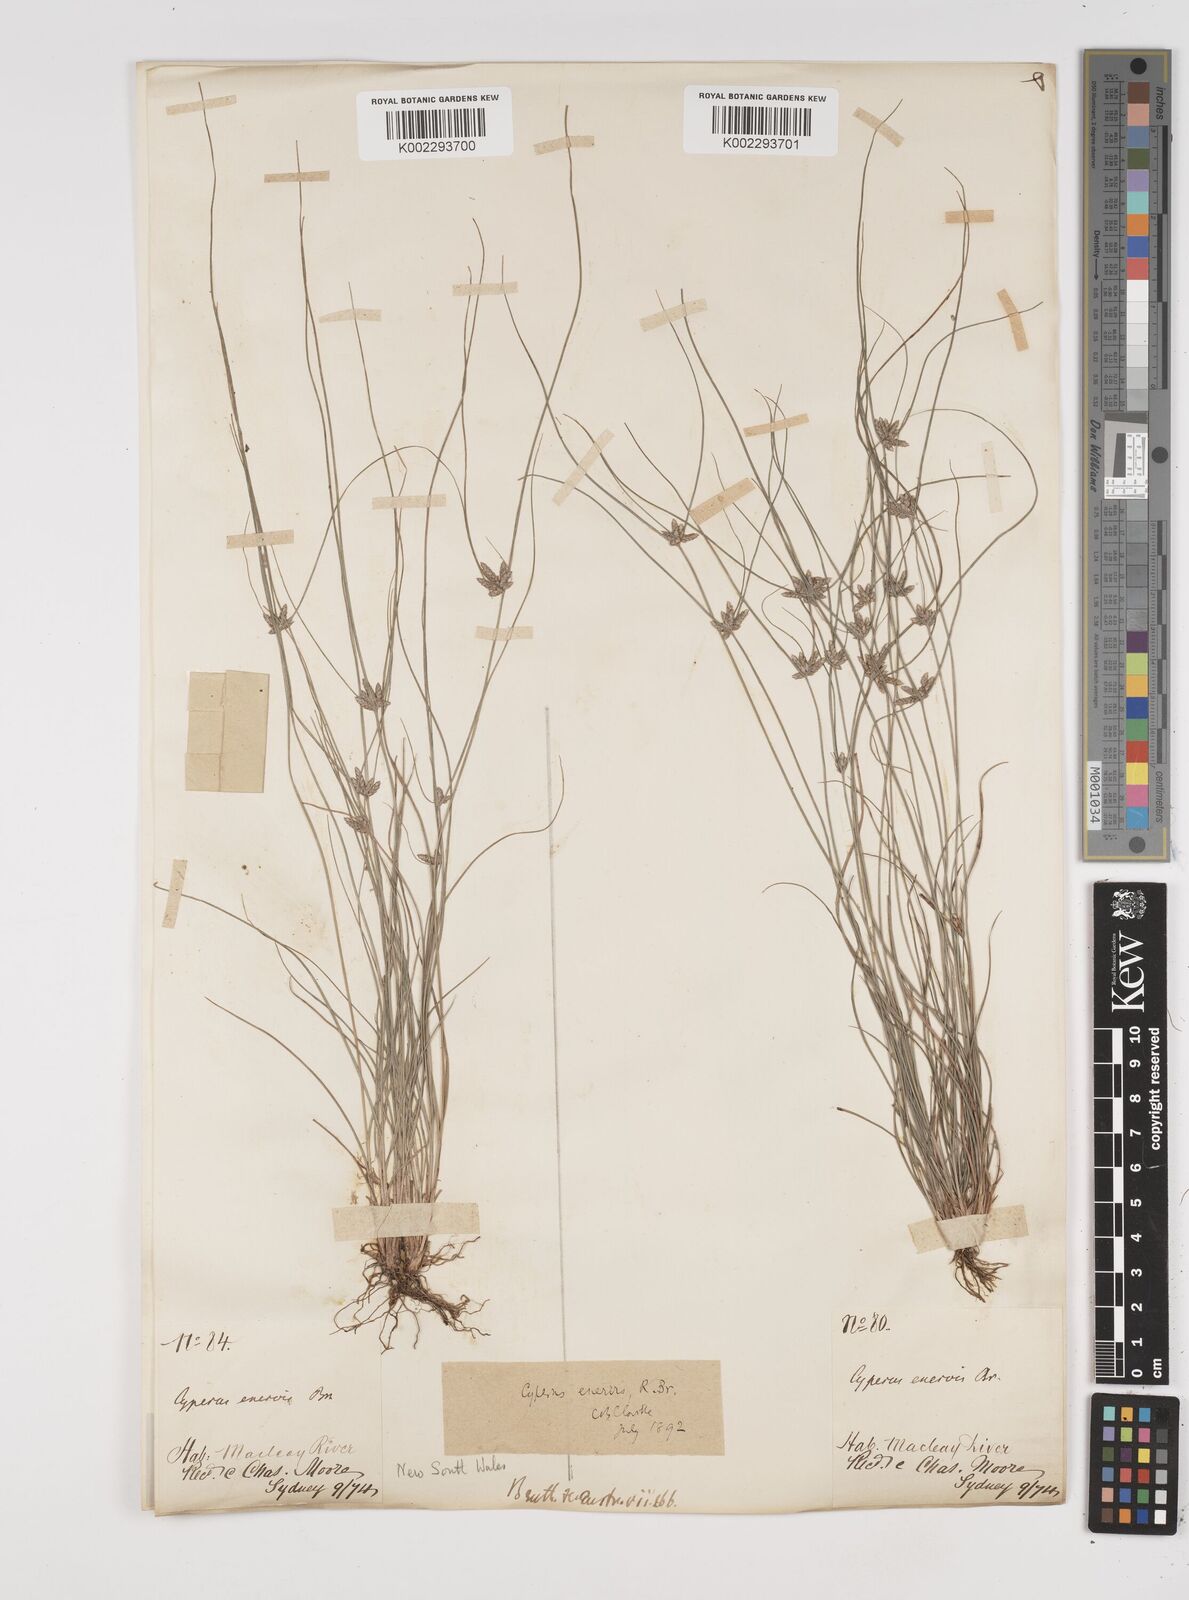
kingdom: Plantae
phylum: Tracheophyta
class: Liliopsida
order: Poales
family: Cyperaceae
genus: Cyperus
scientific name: Cyperus enervis
